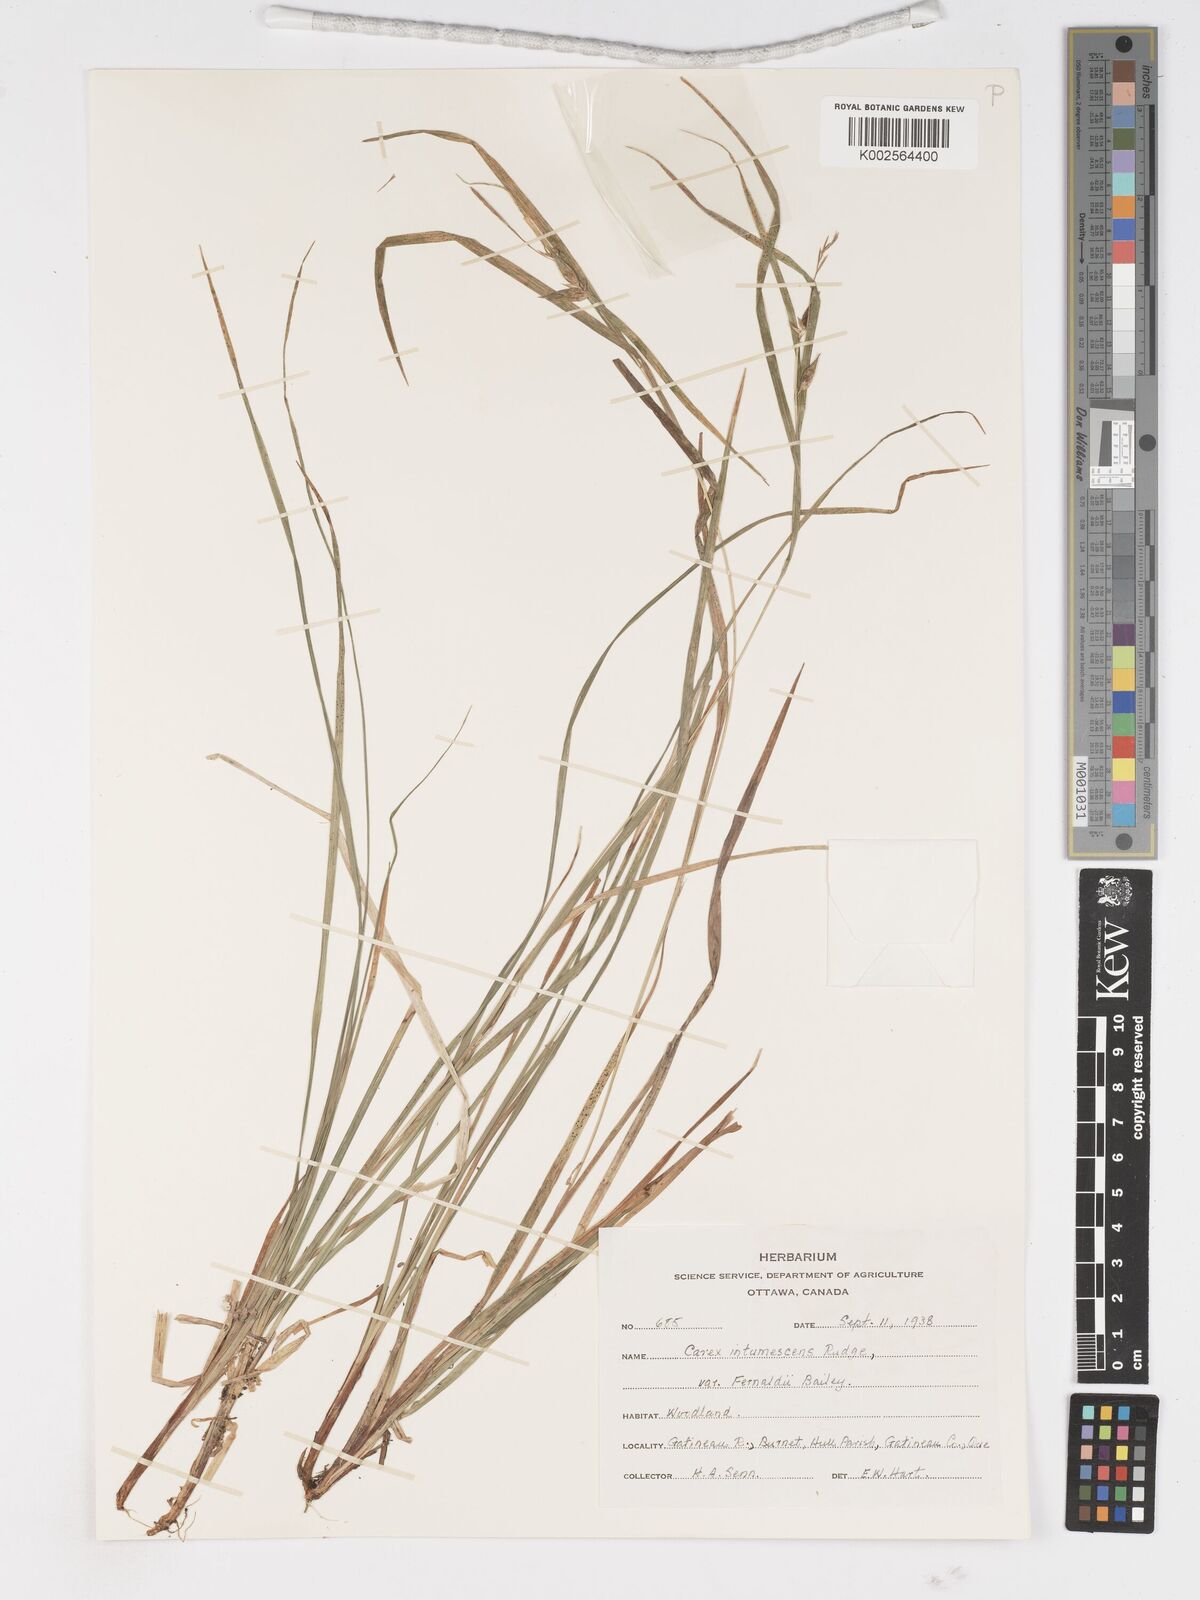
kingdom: Plantae
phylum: Tracheophyta
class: Liliopsida
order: Poales
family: Cyperaceae
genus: Carex
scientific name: Carex intumescens
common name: Greater bladder sedge
